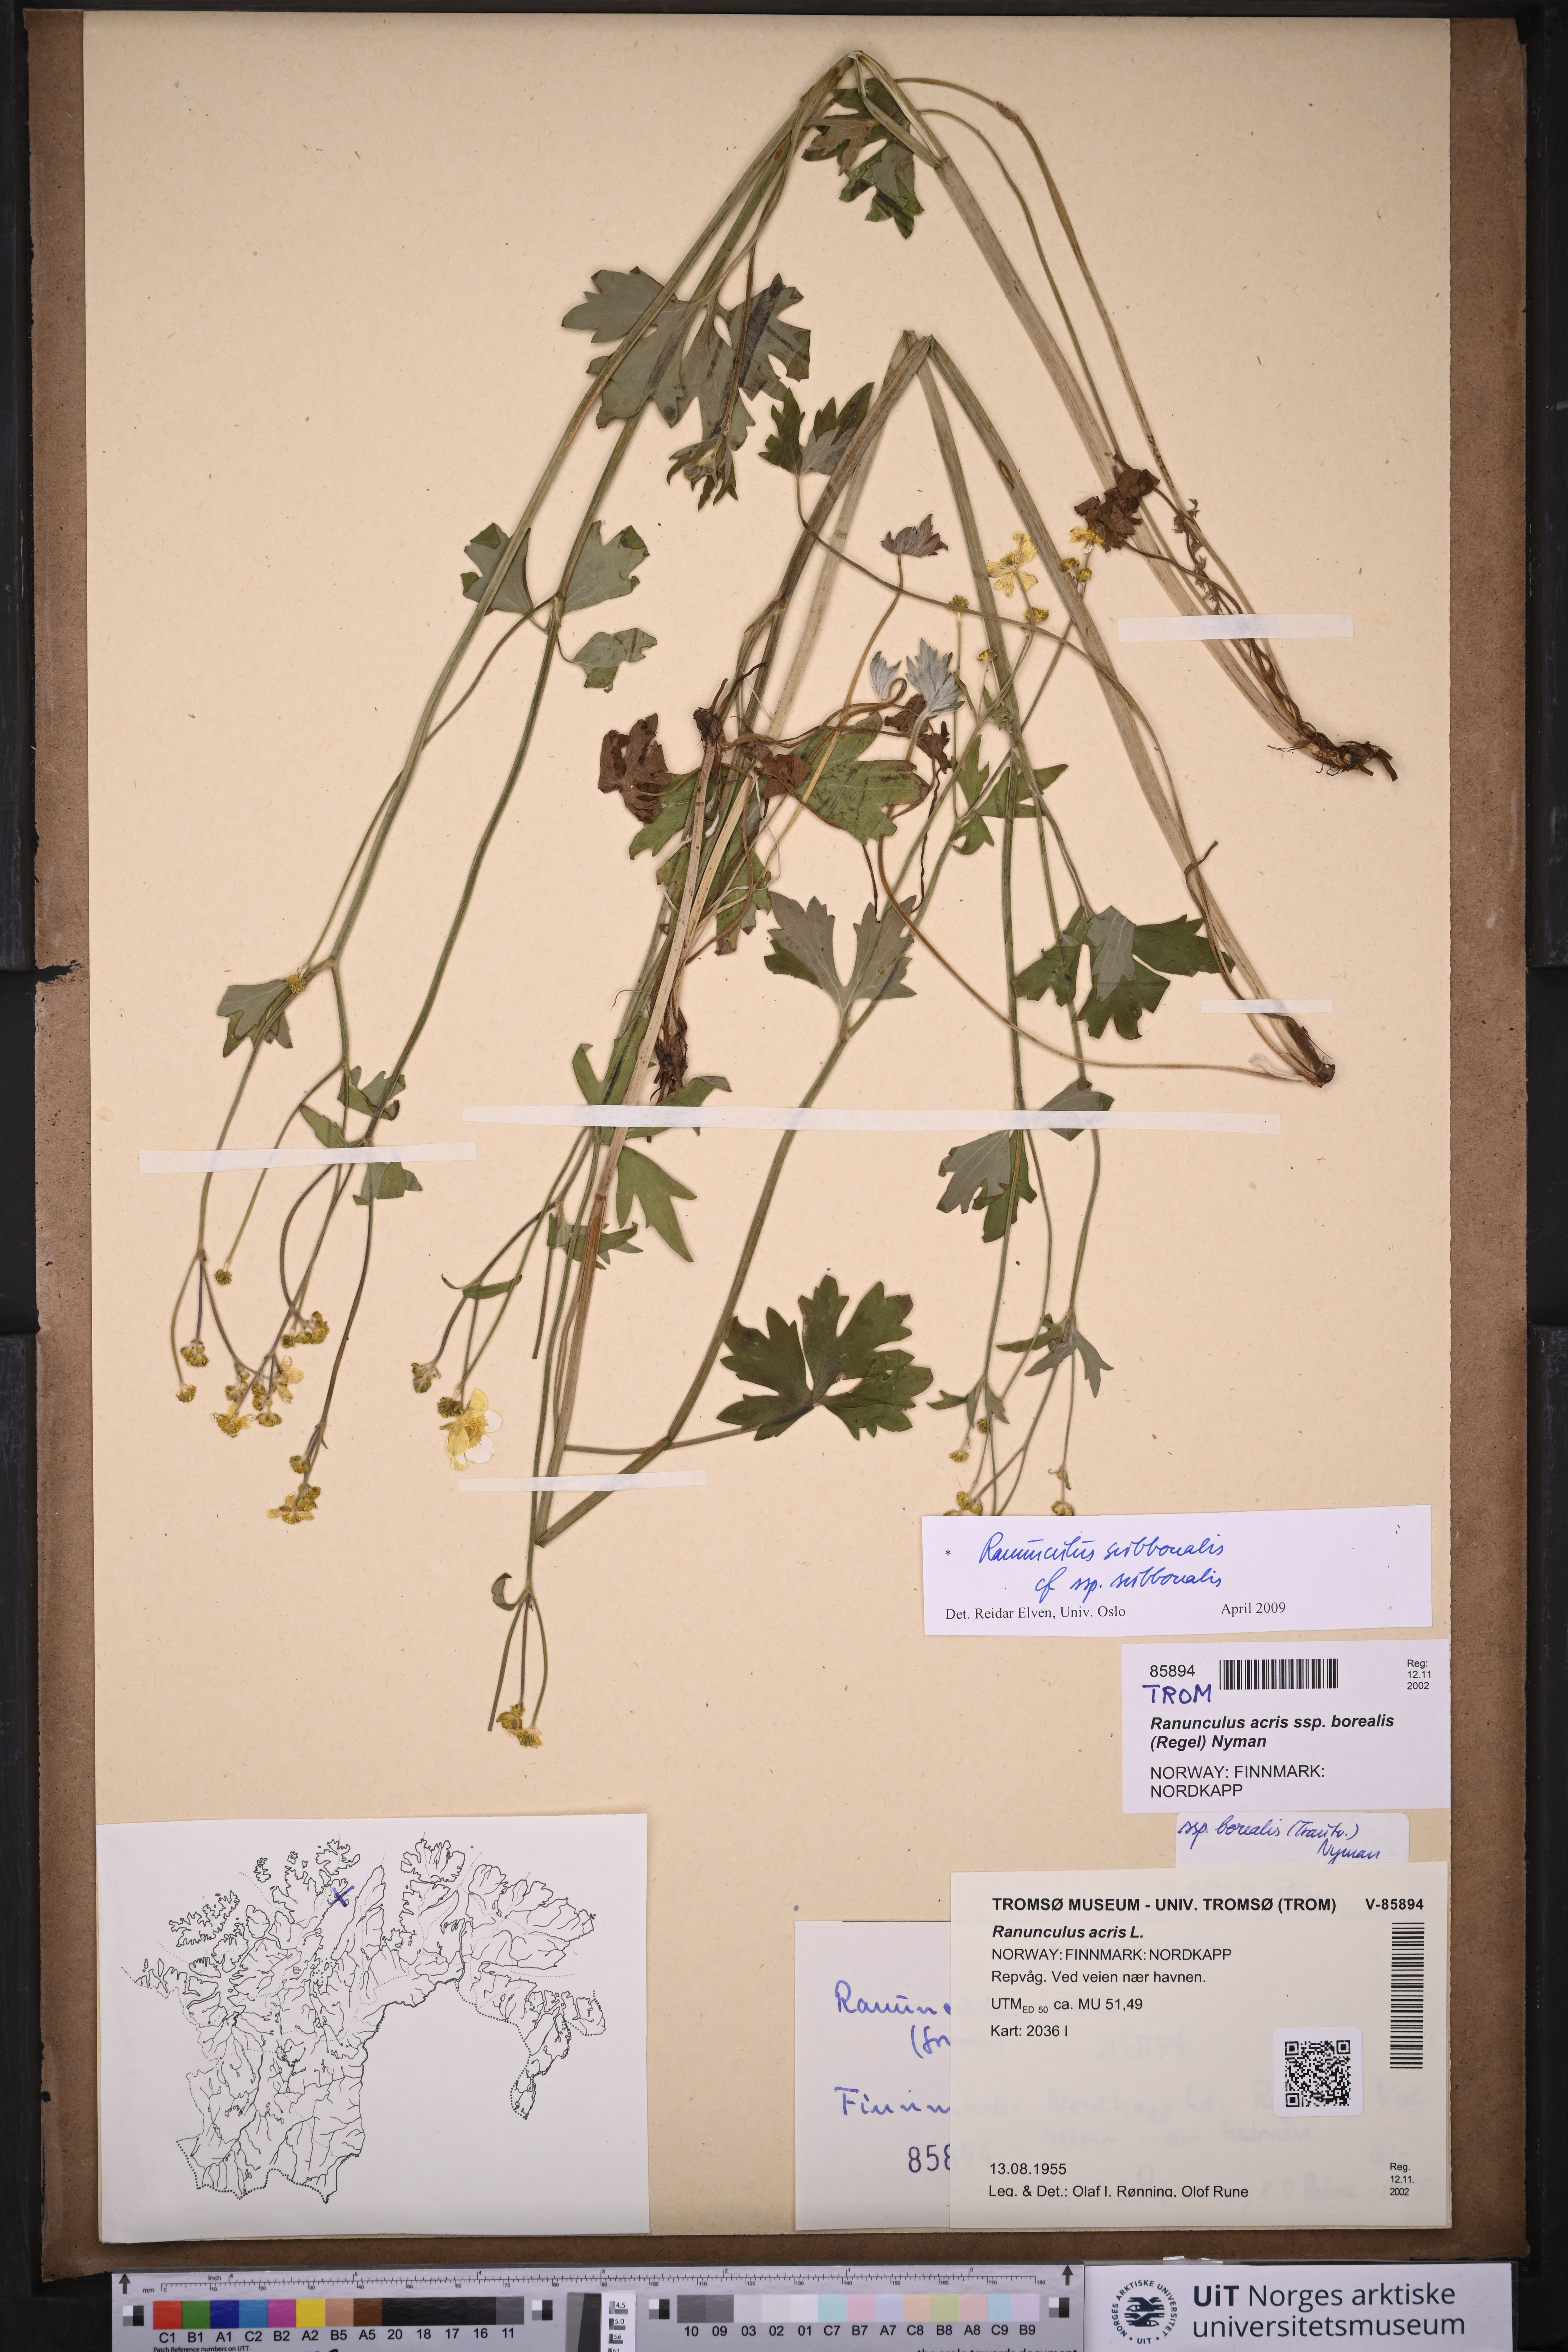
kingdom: Plantae
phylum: Tracheophyta
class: Magnoliopsida
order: Ranunculales
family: Ranunculaceae
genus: Ranunculus
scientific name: Ranunculus propinquus
